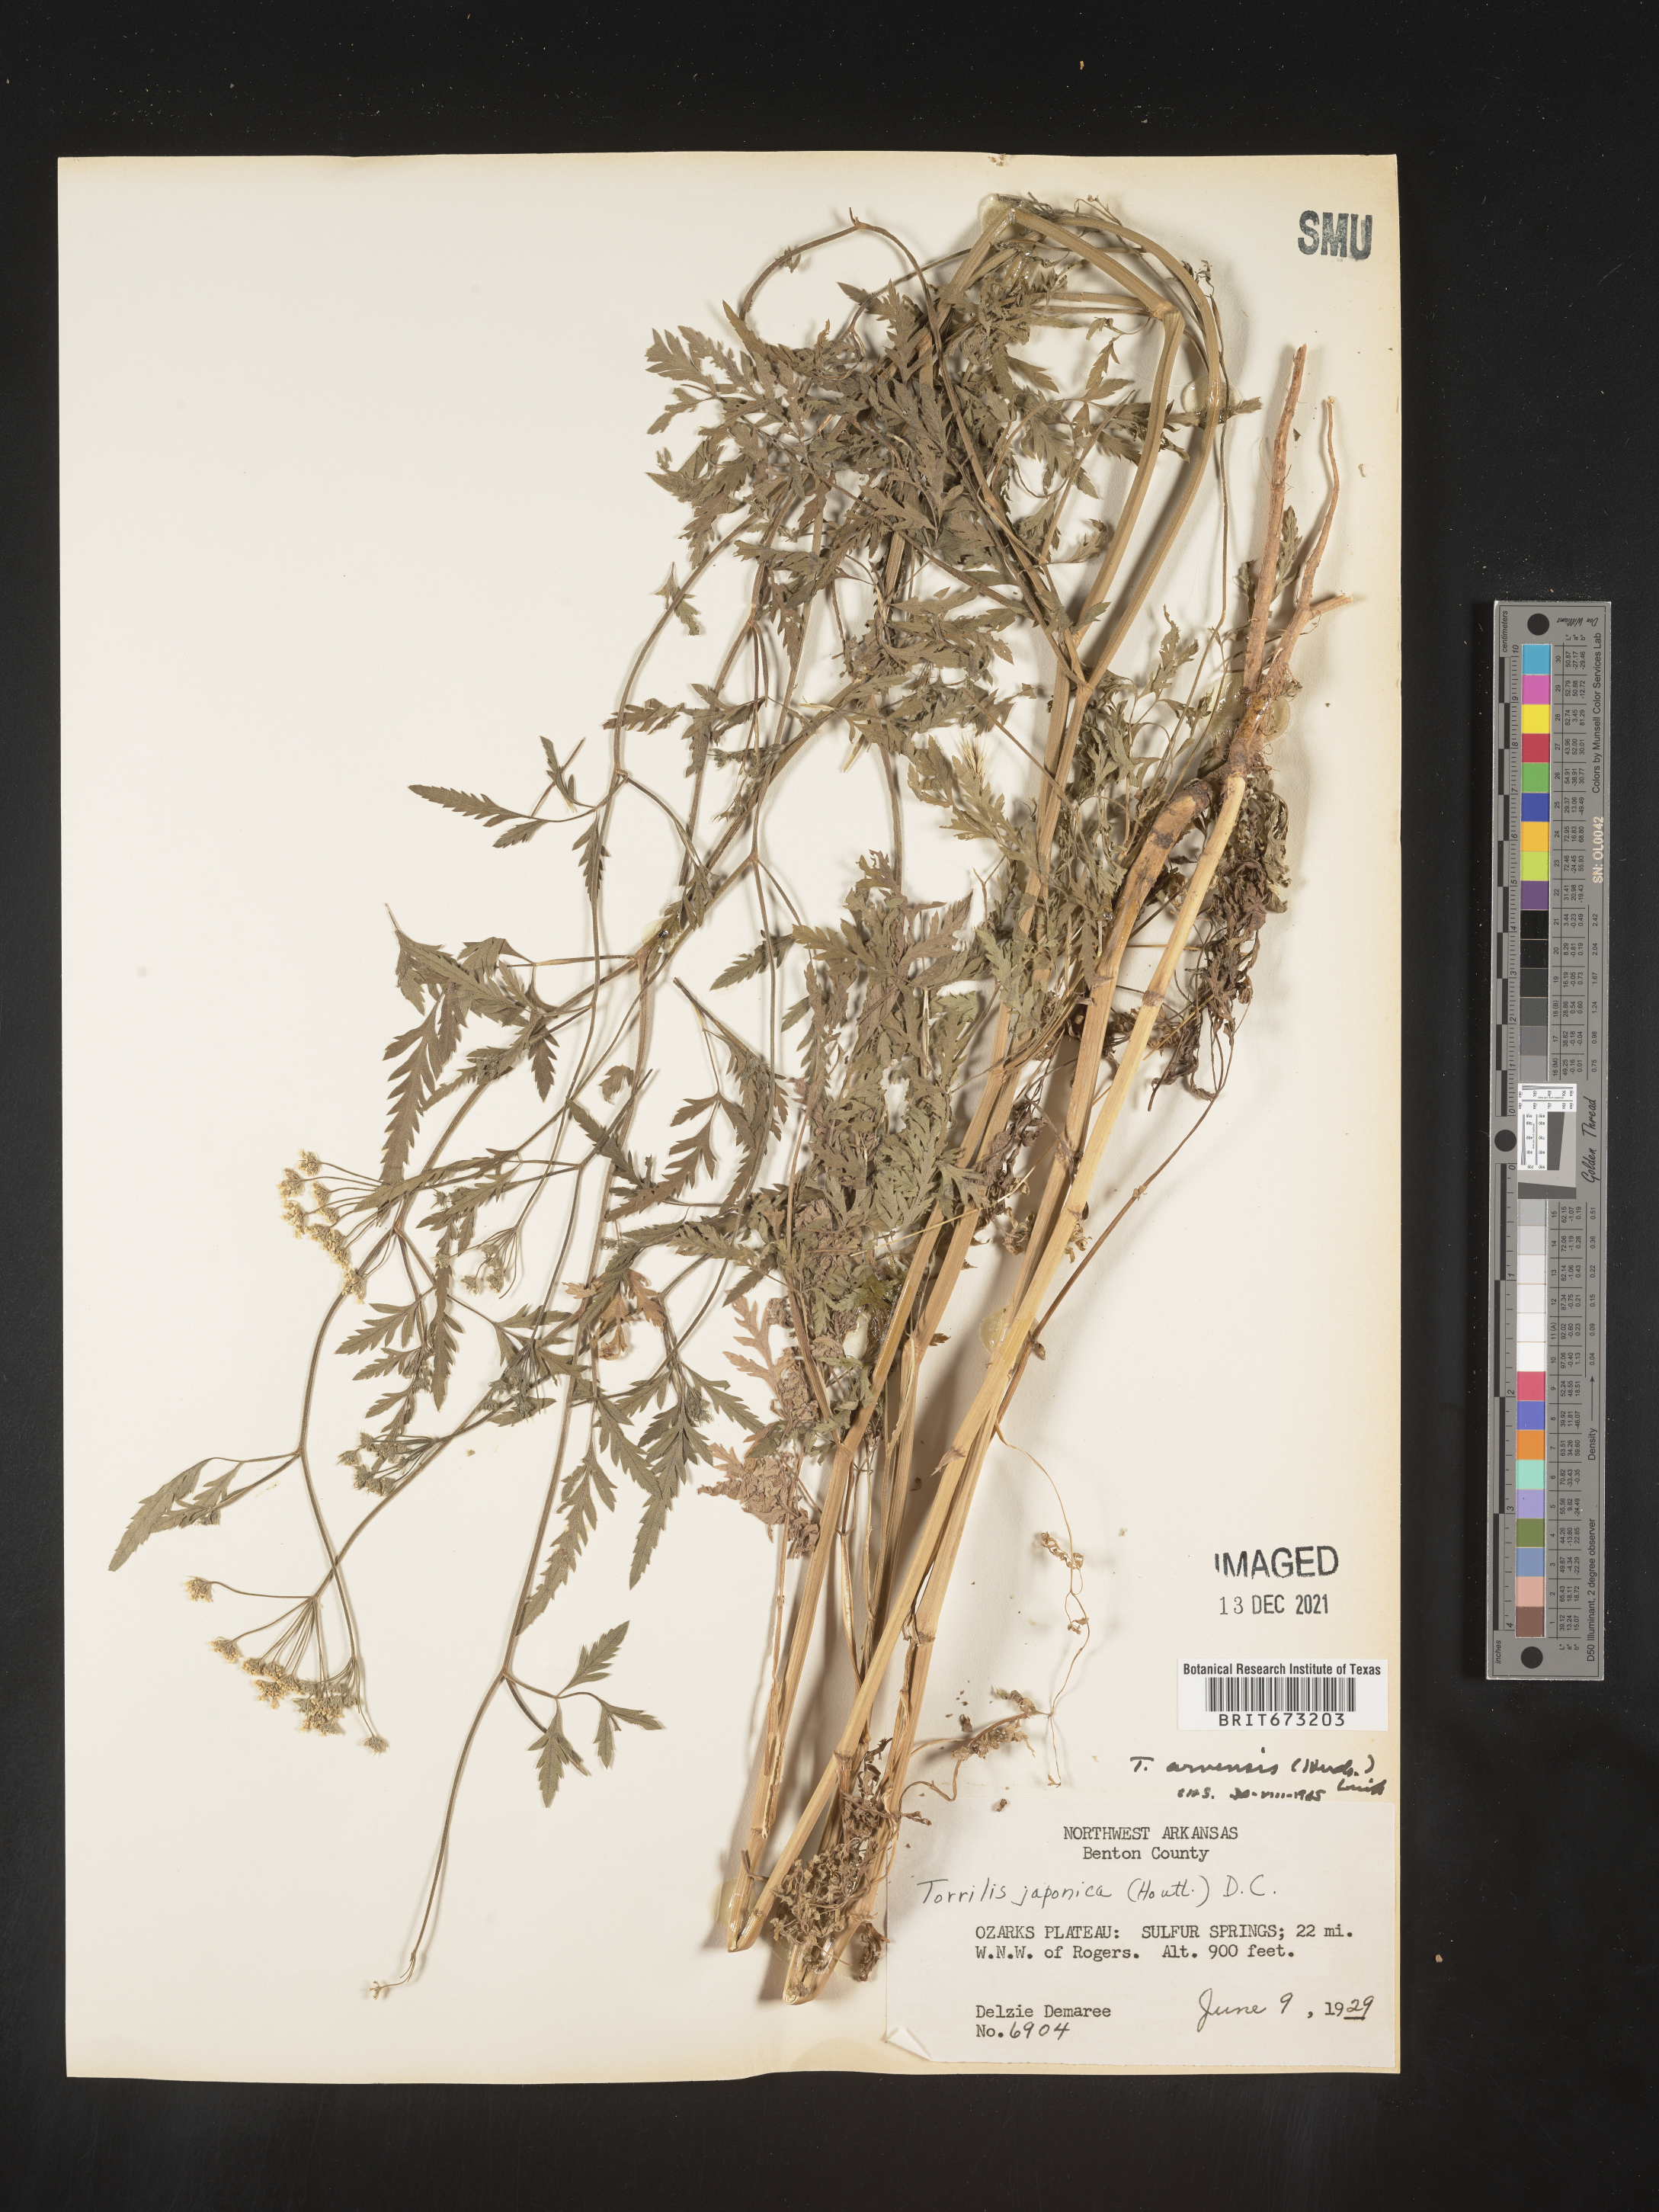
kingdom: Plantae
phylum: Tracheophyta
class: Magnoliopsida
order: Apiales
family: Apiaceae
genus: Torilis
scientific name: Torilis arvensis
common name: Spreading hedge-parsley
